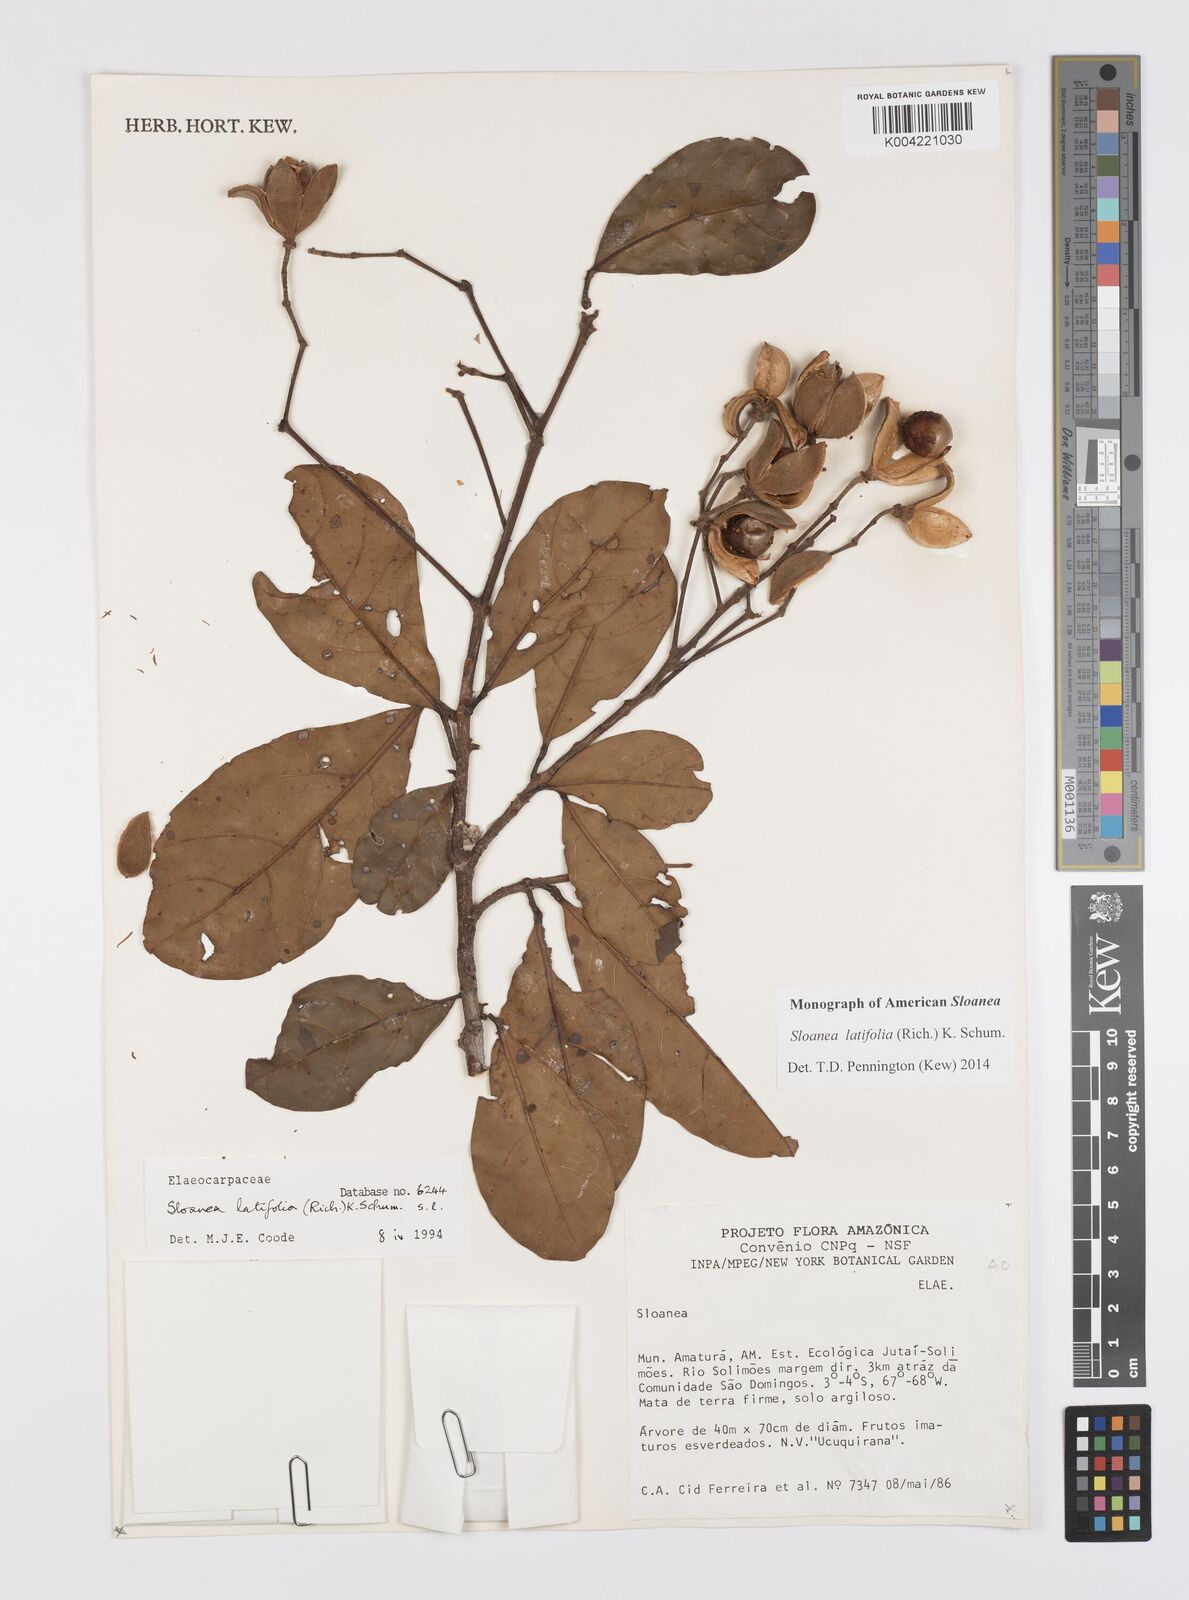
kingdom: Plantae
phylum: Tracheophyta
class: Magnoliopsida
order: Oxalidales
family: Elaeocarpaceae
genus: Sloanea
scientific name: Sloanea latifolia
